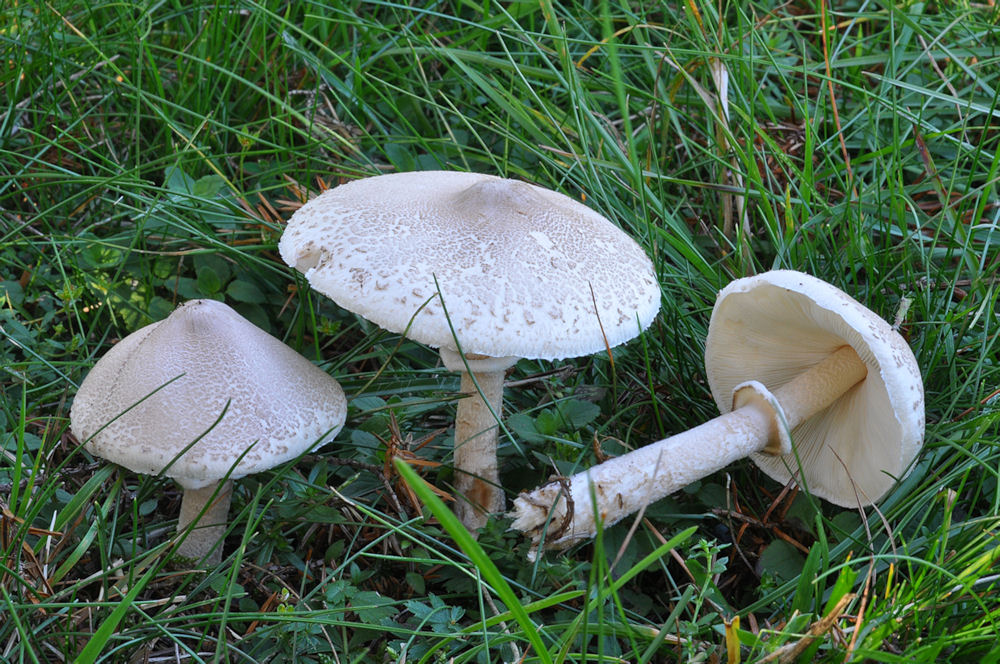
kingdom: Fungi
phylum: Basidiomycota
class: Agaricomycetes
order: Agaricales
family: Agaricaceae
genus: Macrolepiota
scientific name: Macrolepiota excoriata
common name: mark-kæmpeparasolhat
